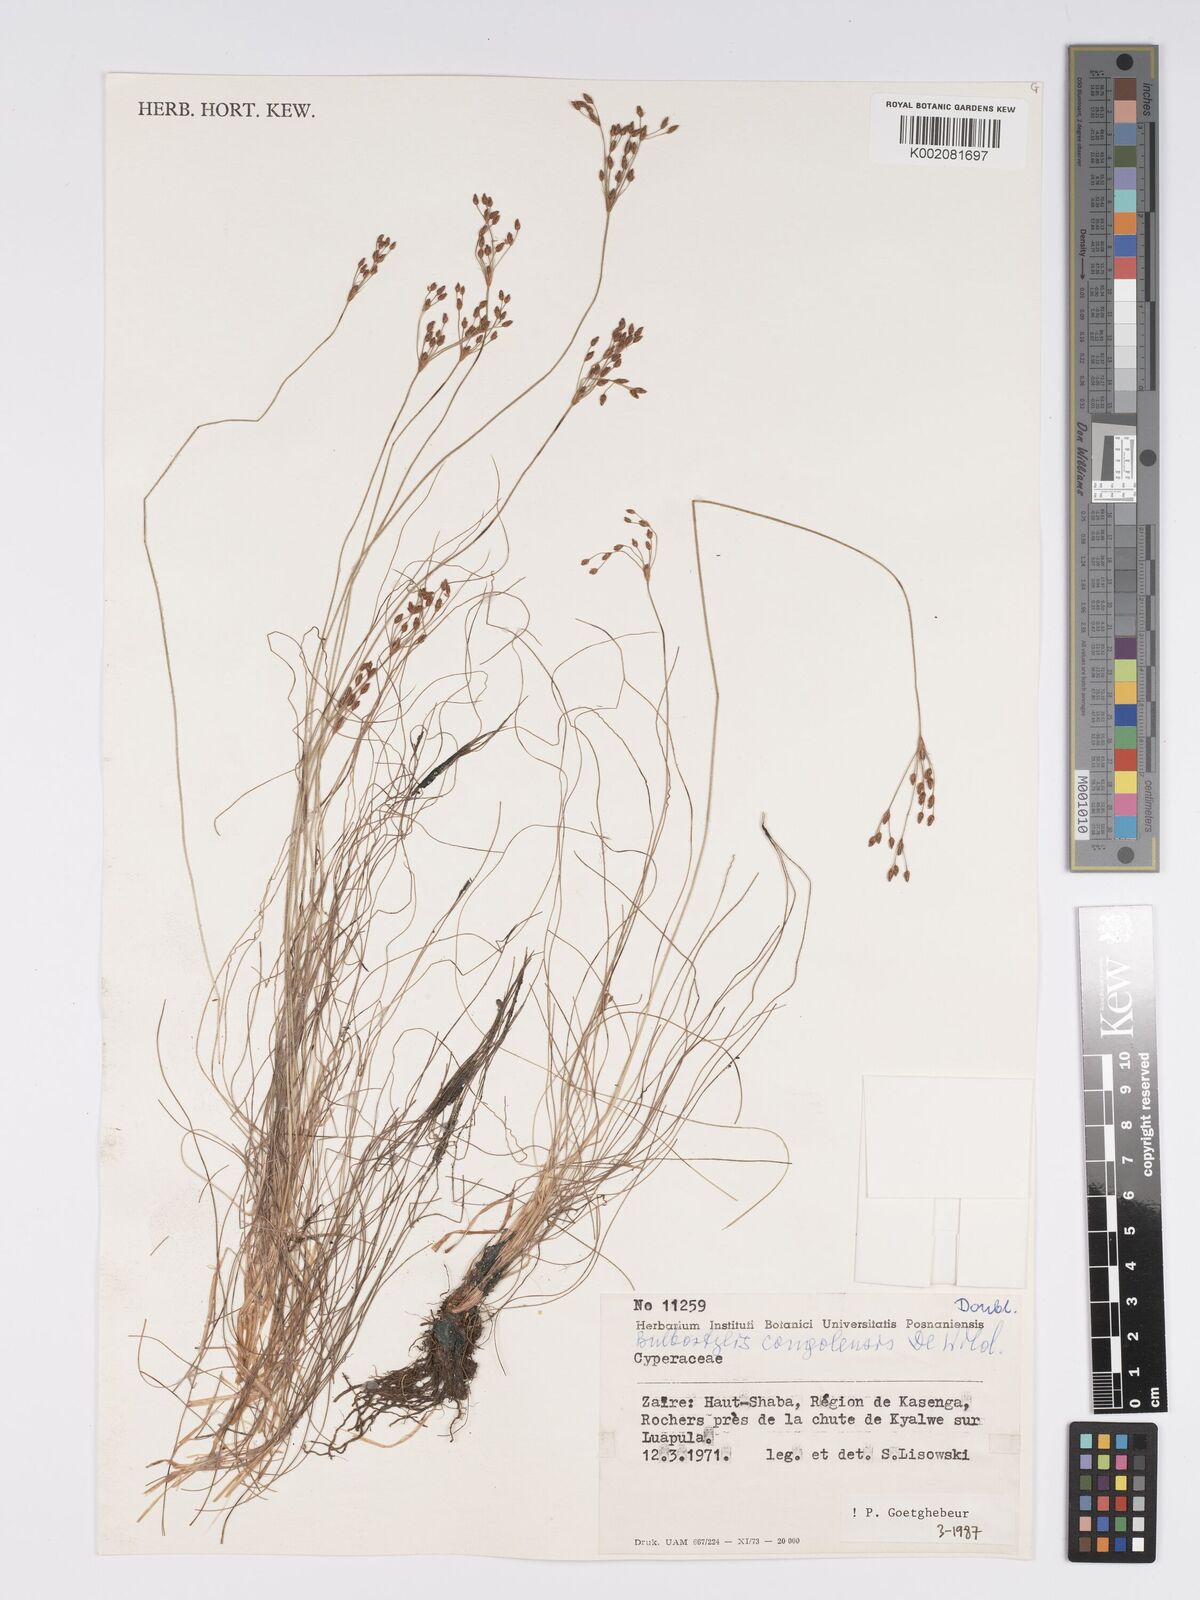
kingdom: Plantae
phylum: Tracheophyta
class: Liliopsida
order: Poales
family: Cyperaceae
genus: Bulbostylis
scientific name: Bulbostylis congolensis
